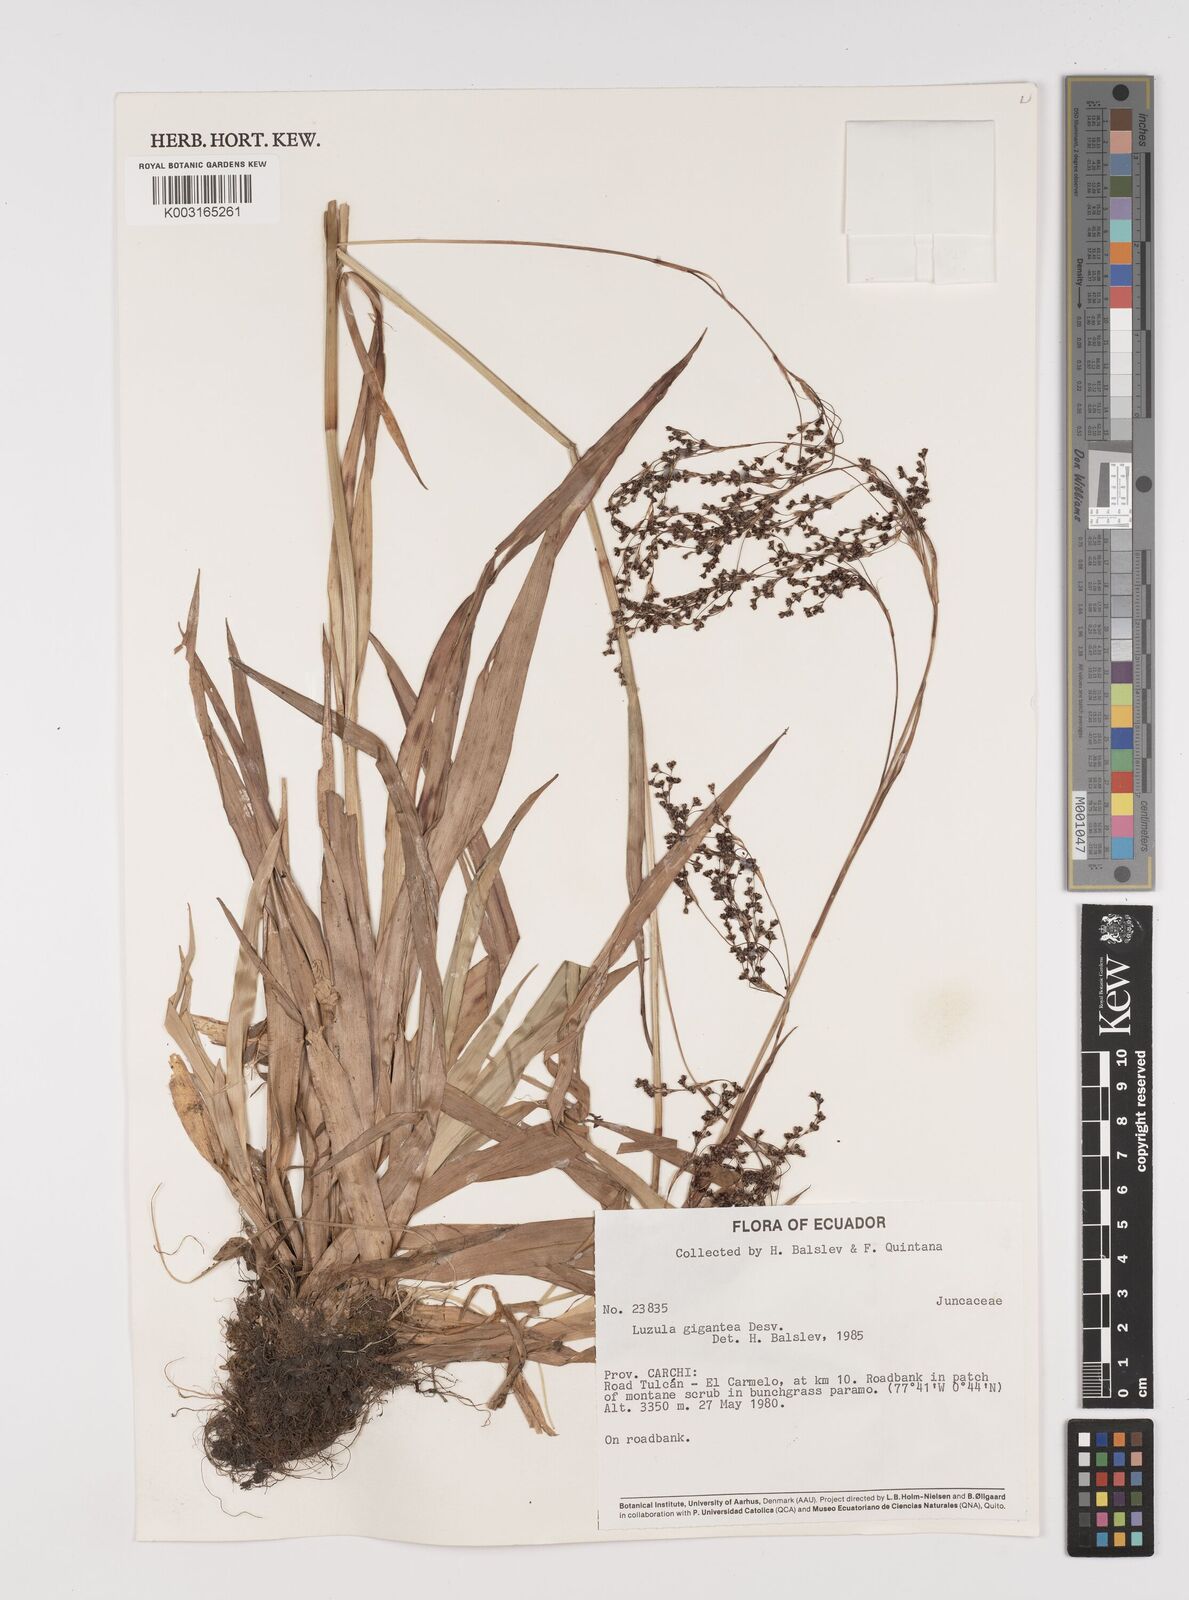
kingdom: Plantae
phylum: Tracheophyta
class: Liliopsida
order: Poales
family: Juncaceae
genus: Luzula
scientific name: Luzula gigantea
